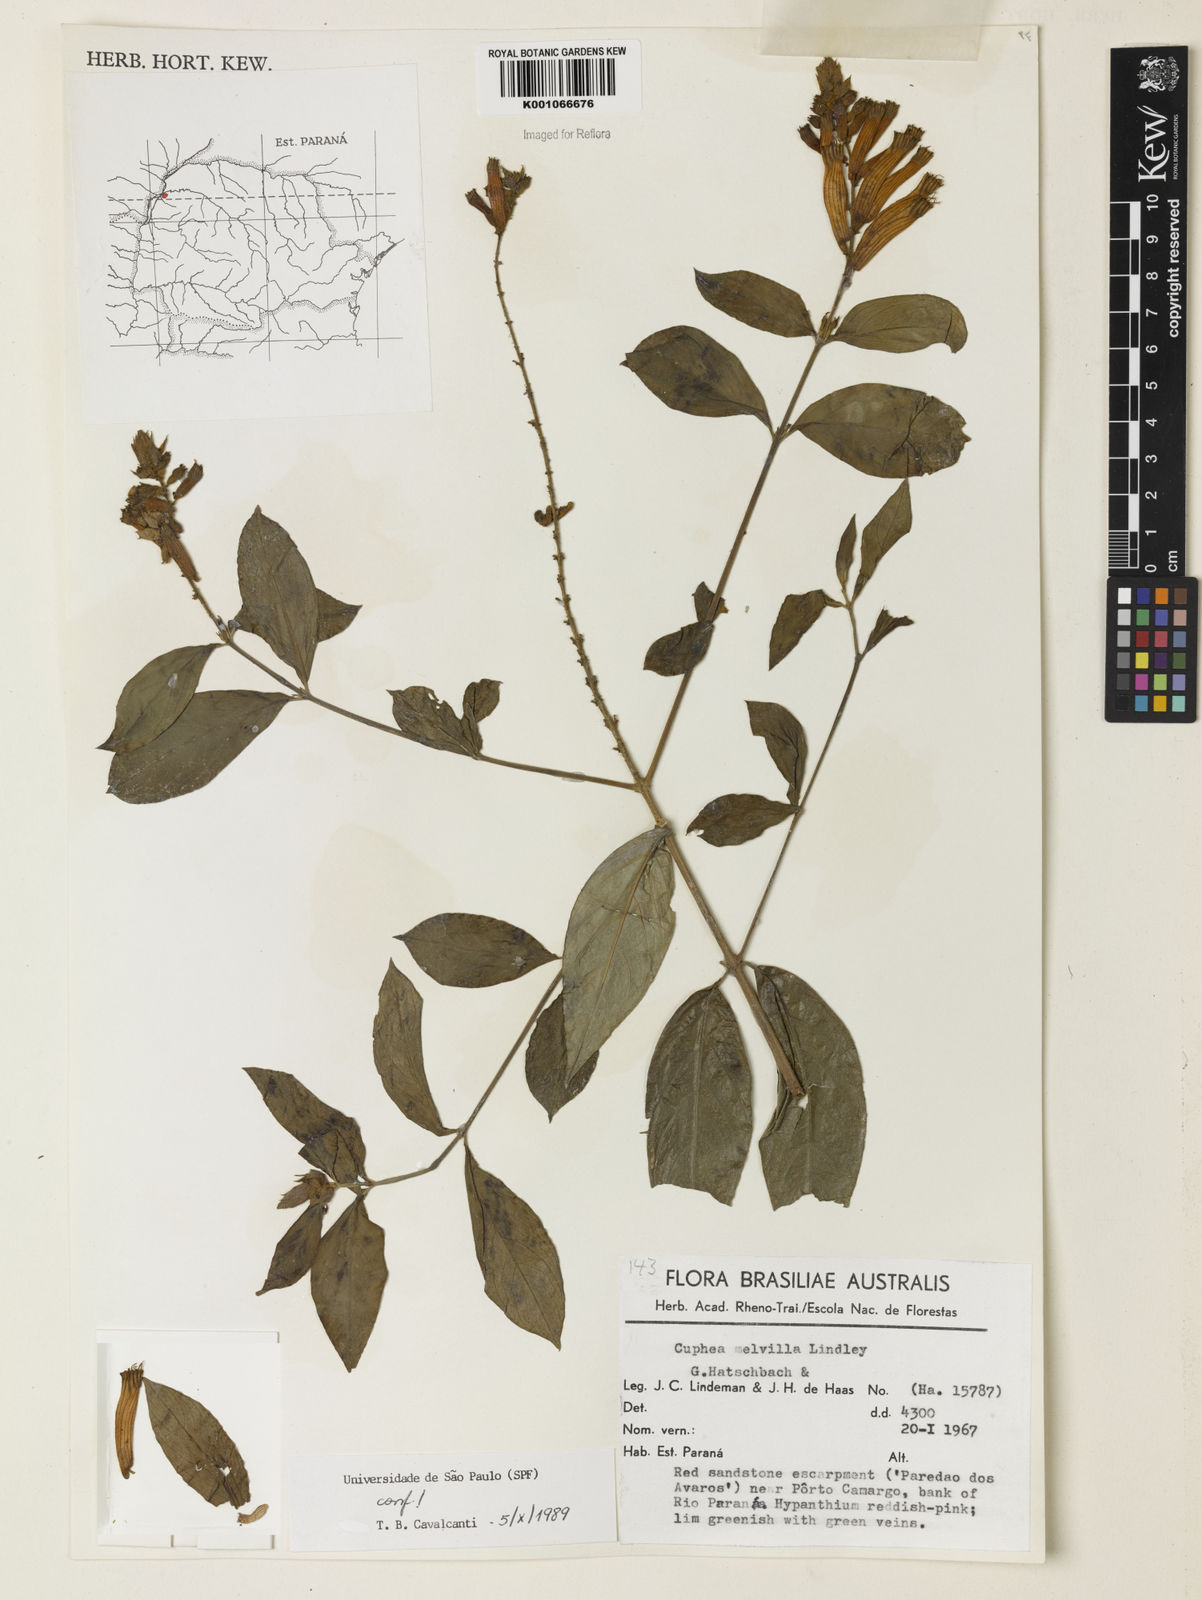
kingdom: Plantae
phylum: Tracheophyta
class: Magnoliopsida
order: Myrtales
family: Lythraceae
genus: Cuphea
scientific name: Cuphea melvilla
